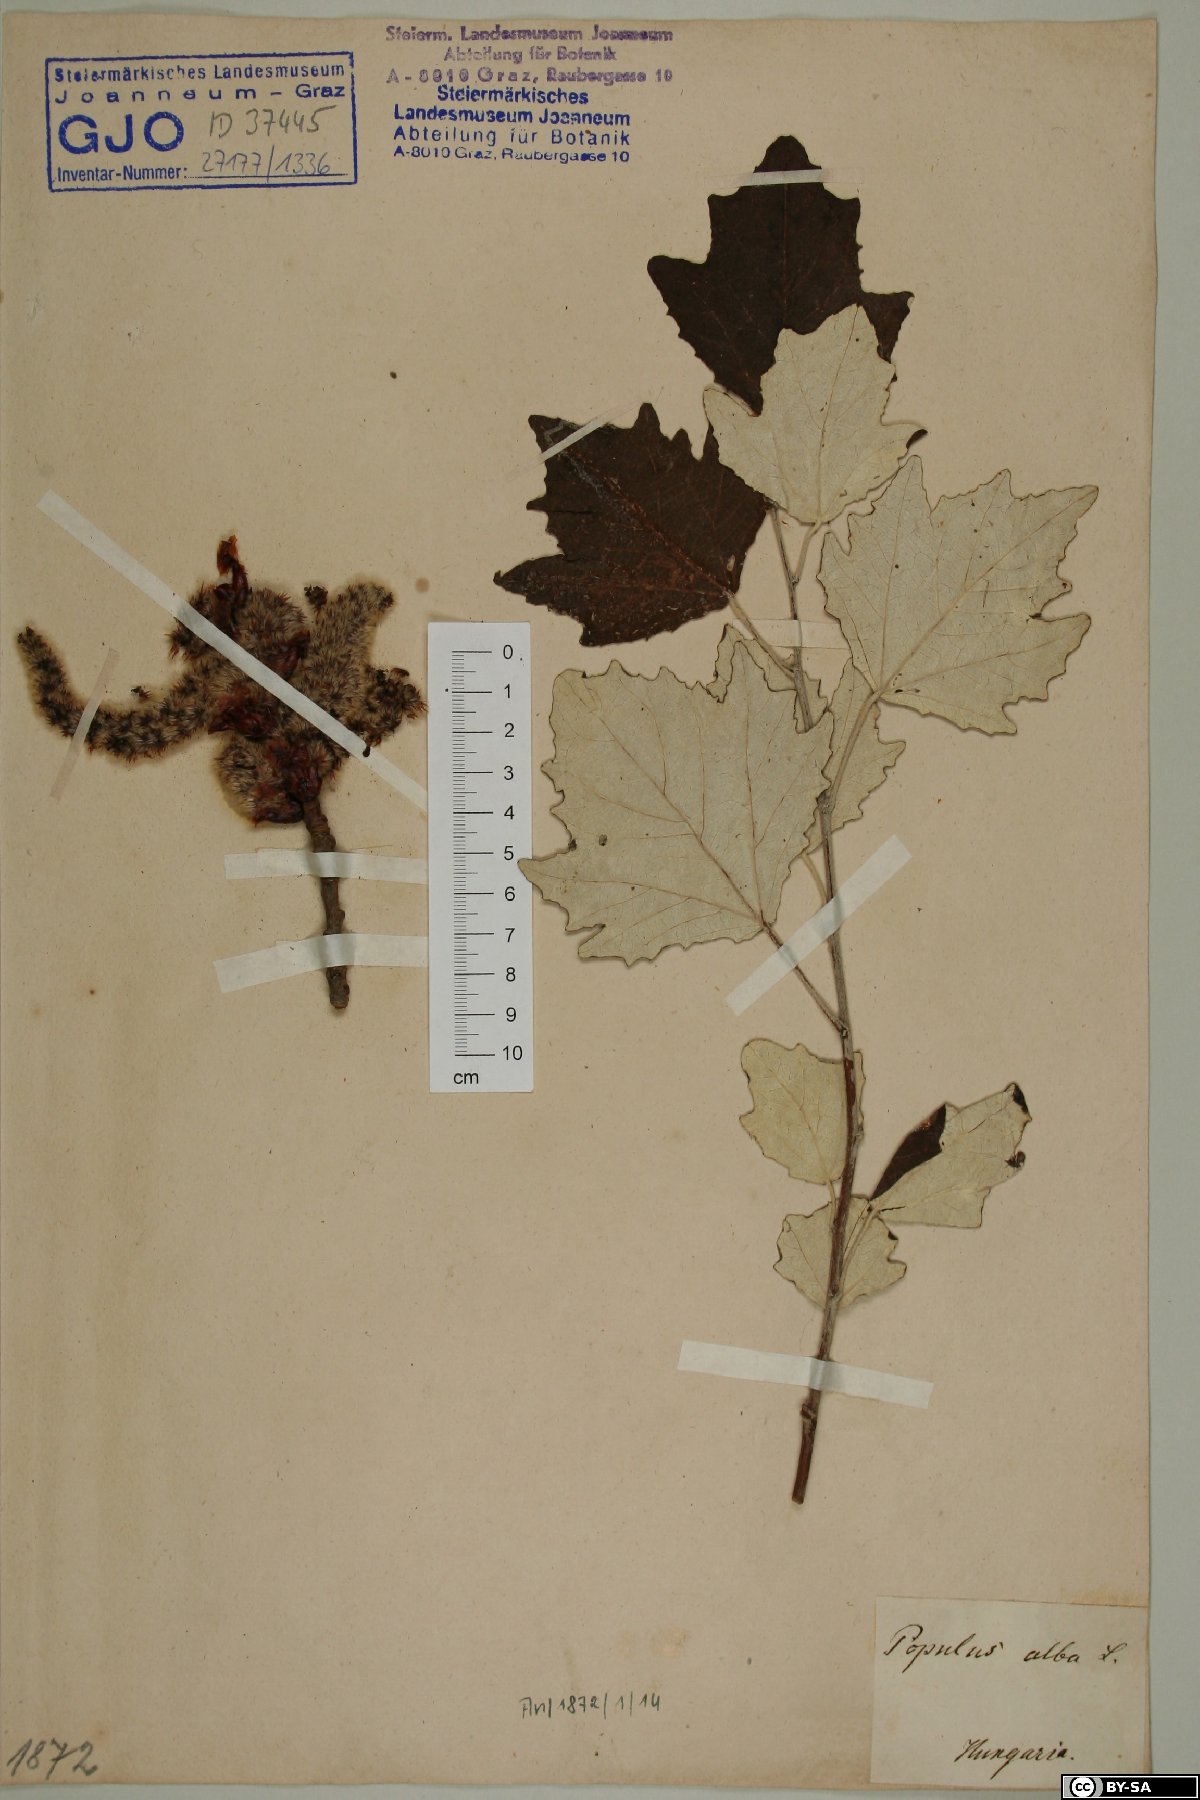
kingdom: Plantae
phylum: Tracheophyta
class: Magnoliopsida
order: Malpighiales
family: Salicaceae
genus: Populus
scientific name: Populus alba
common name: White poplar
